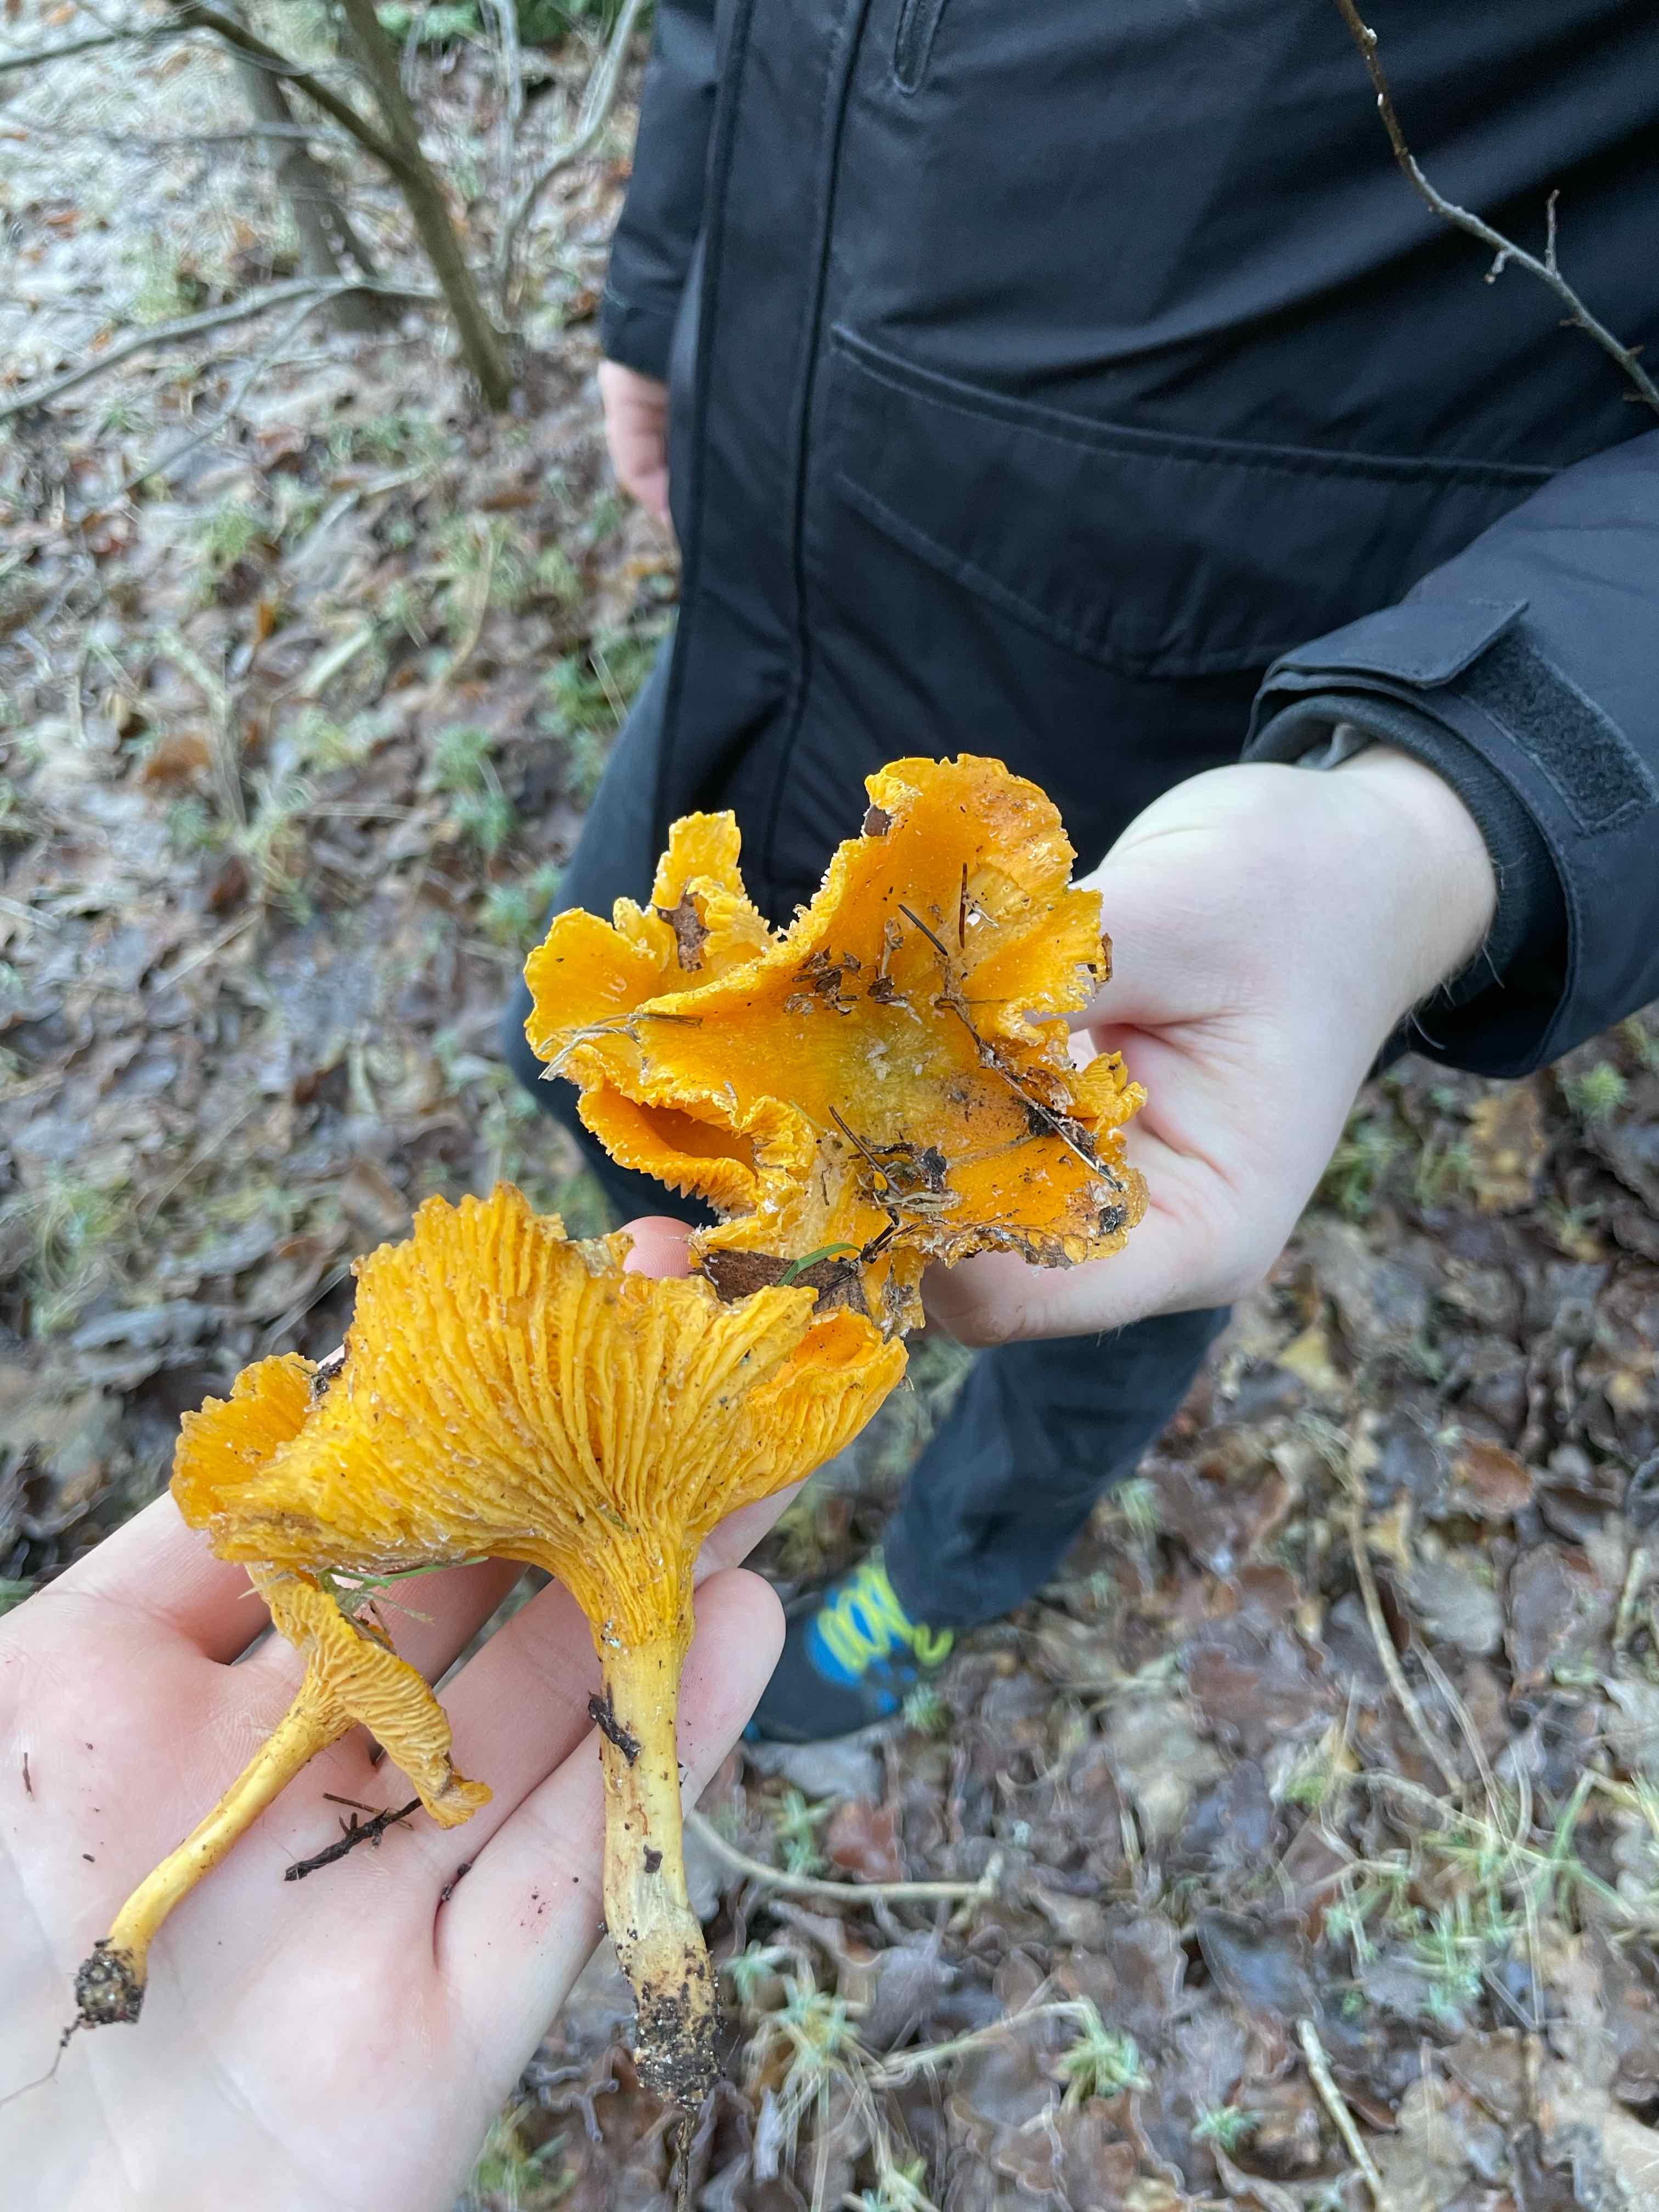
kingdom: Fungi
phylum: Basidiomycota
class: Agaricomycetes
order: Cantharellales
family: Hydnaceae
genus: Cantharellus
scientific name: Cantharellus cibarius
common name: almindelig kantarel
